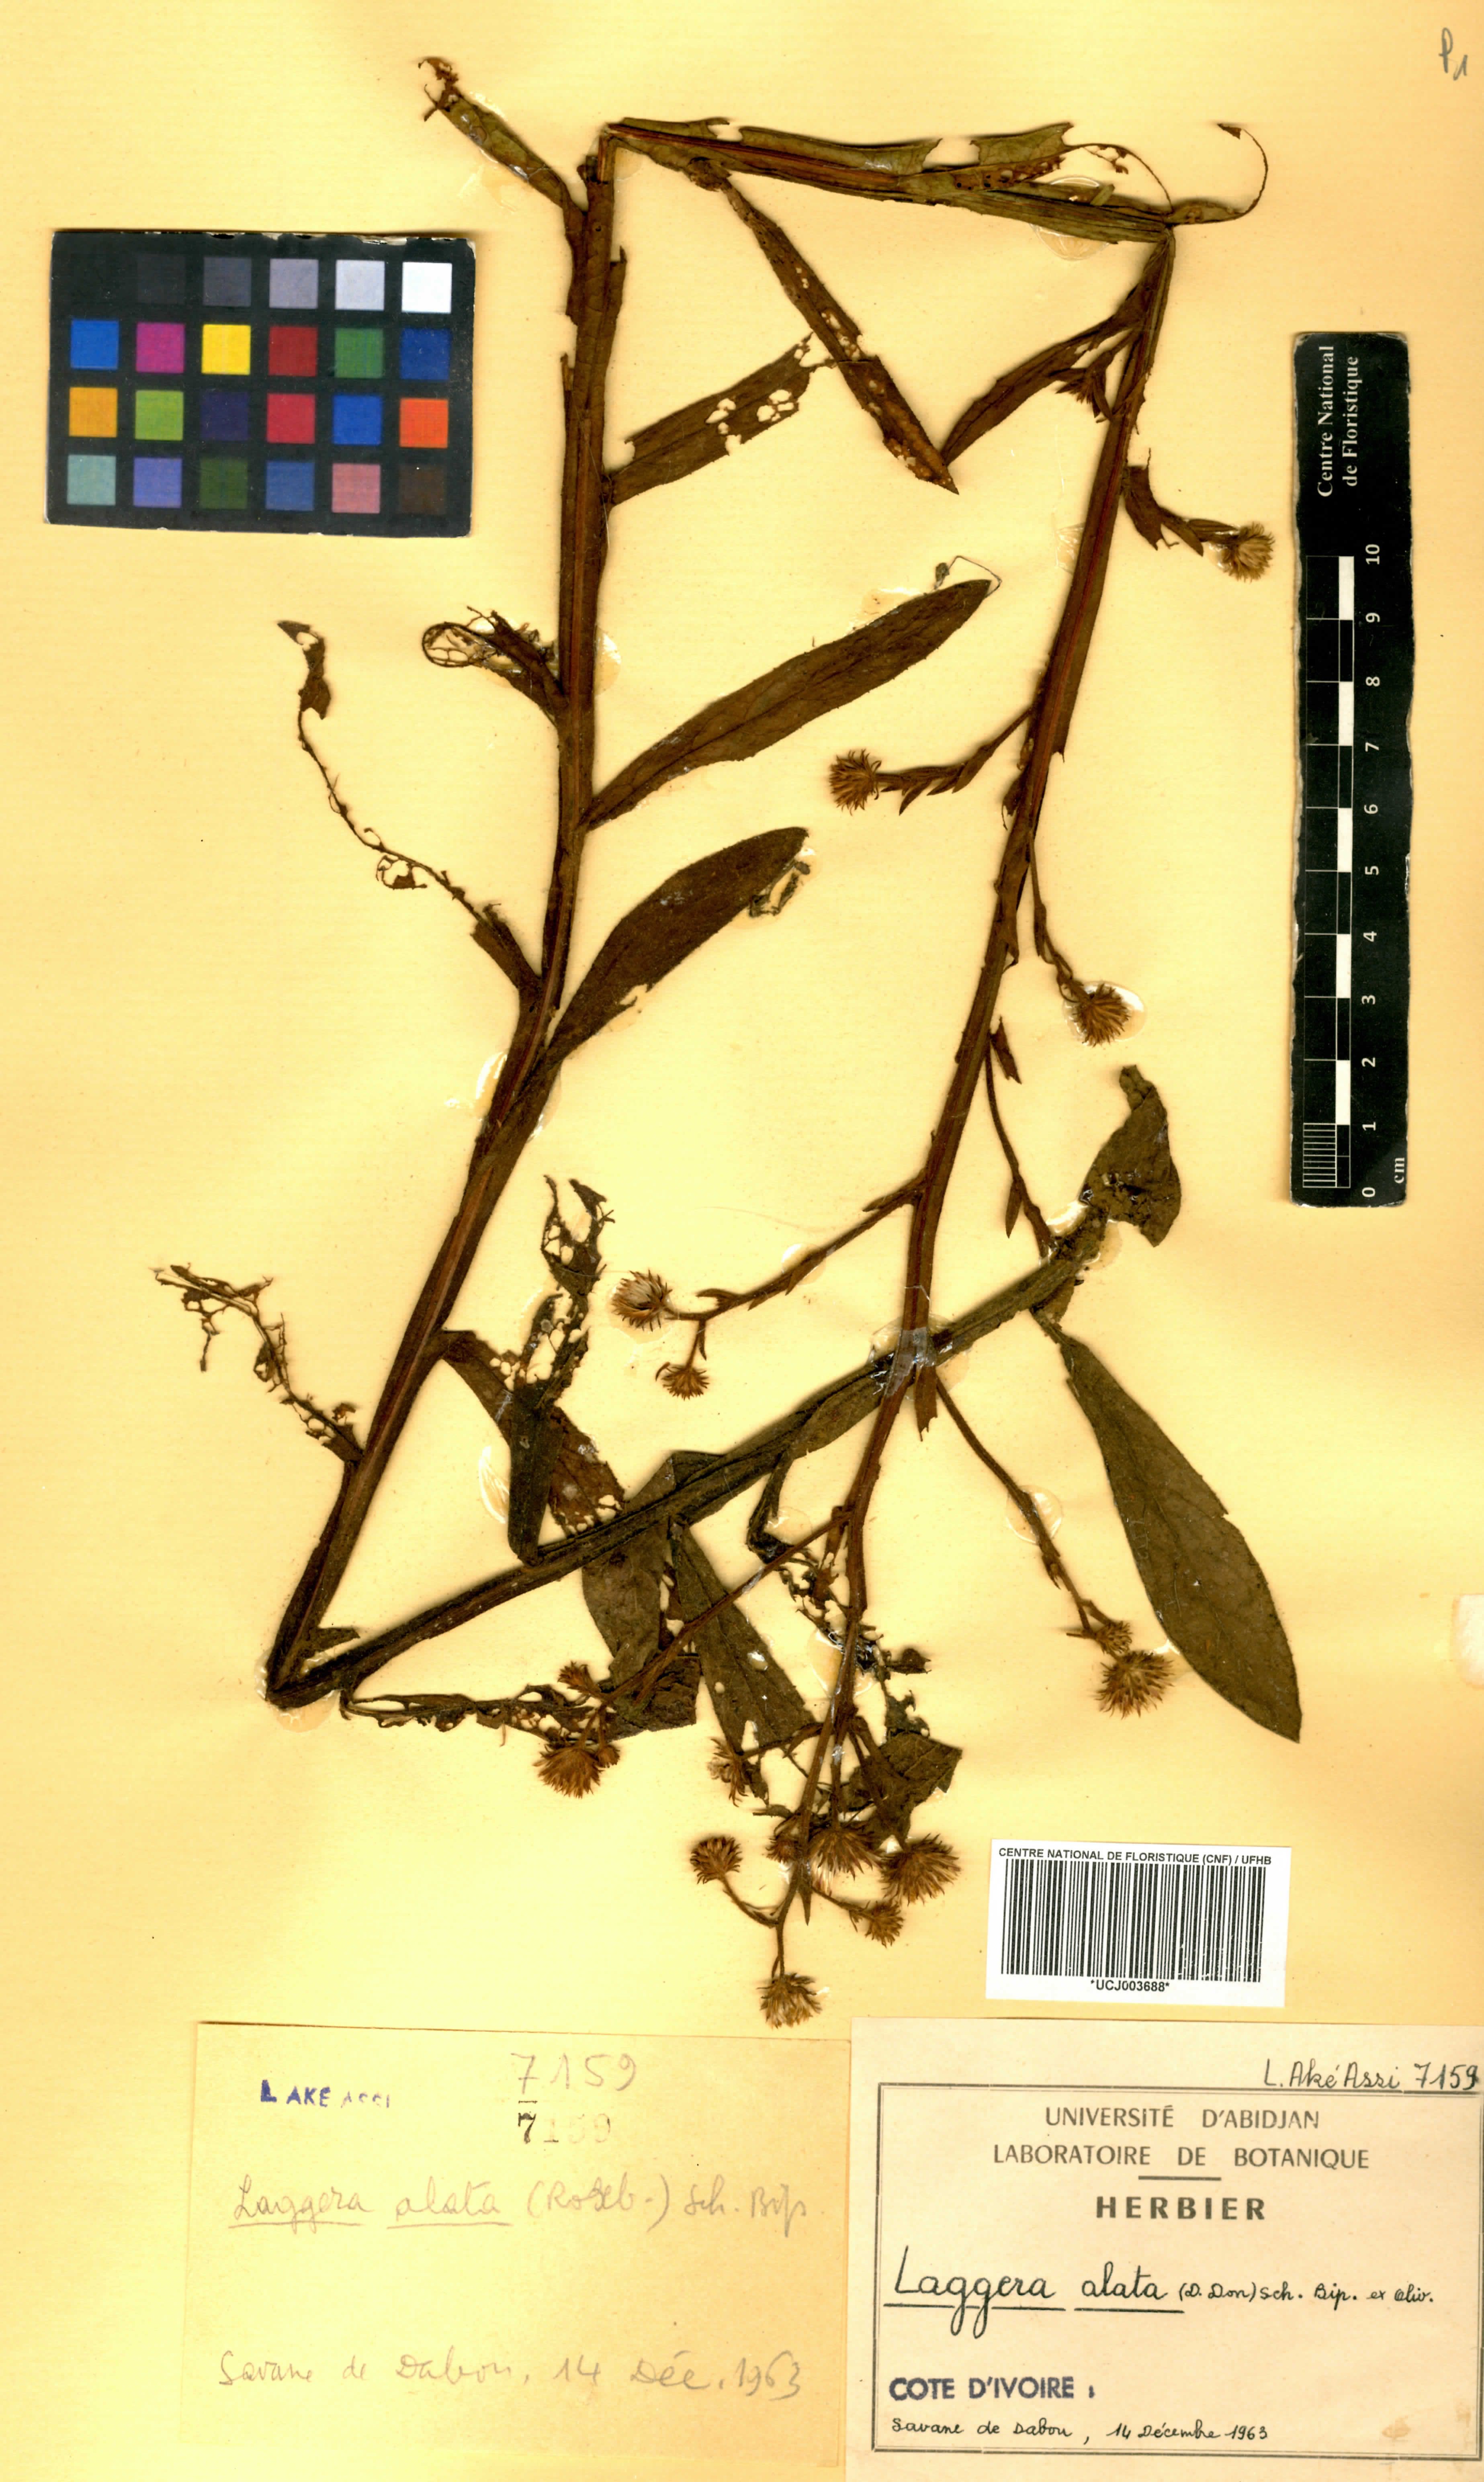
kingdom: Plantae
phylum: Tracheophyta
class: Magnoliopsida
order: Asterales
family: Asteraceae
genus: Laggera
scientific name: Laggera alata
